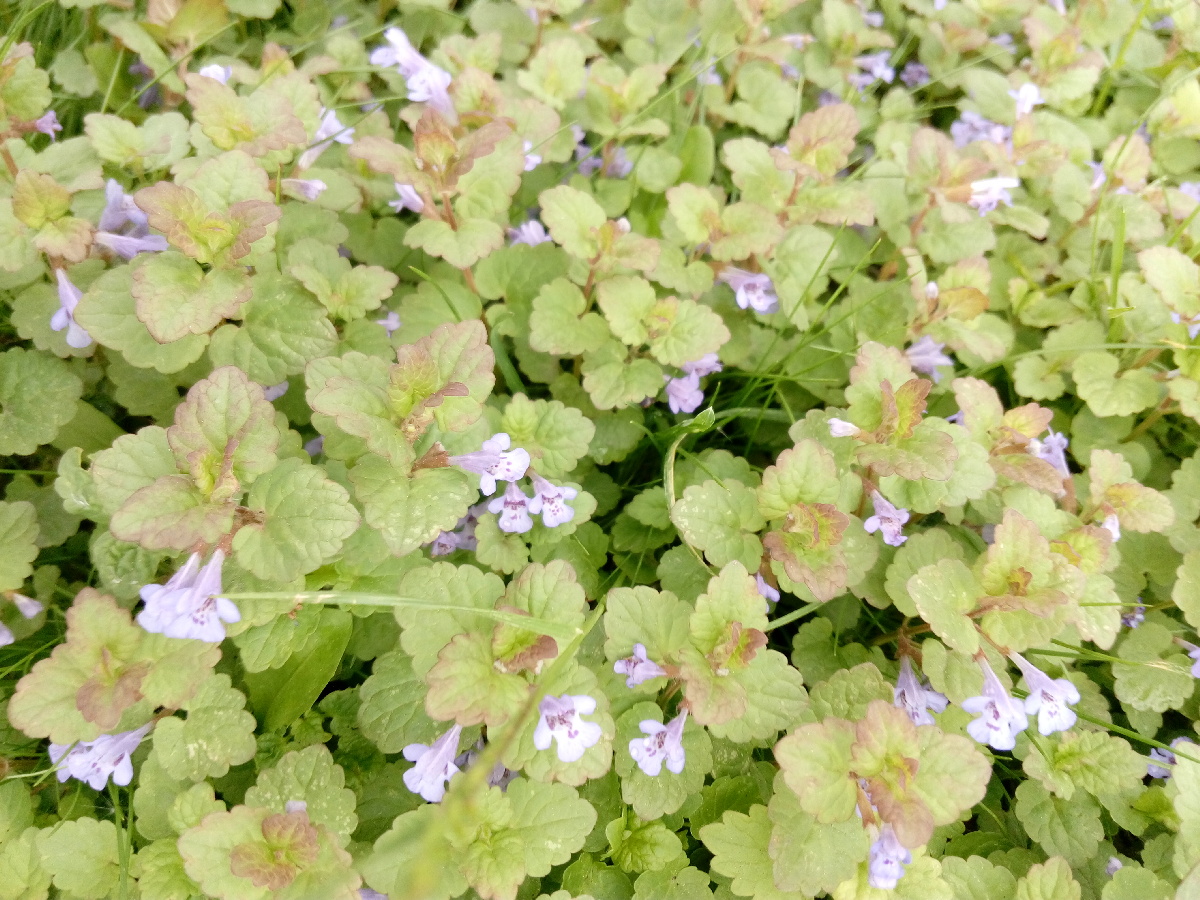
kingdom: Plantae
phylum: Tracheophyta
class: Magnoliopsida
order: Lamiales
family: Lamiaceae
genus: Glechoma
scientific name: Glechoma hederacea
